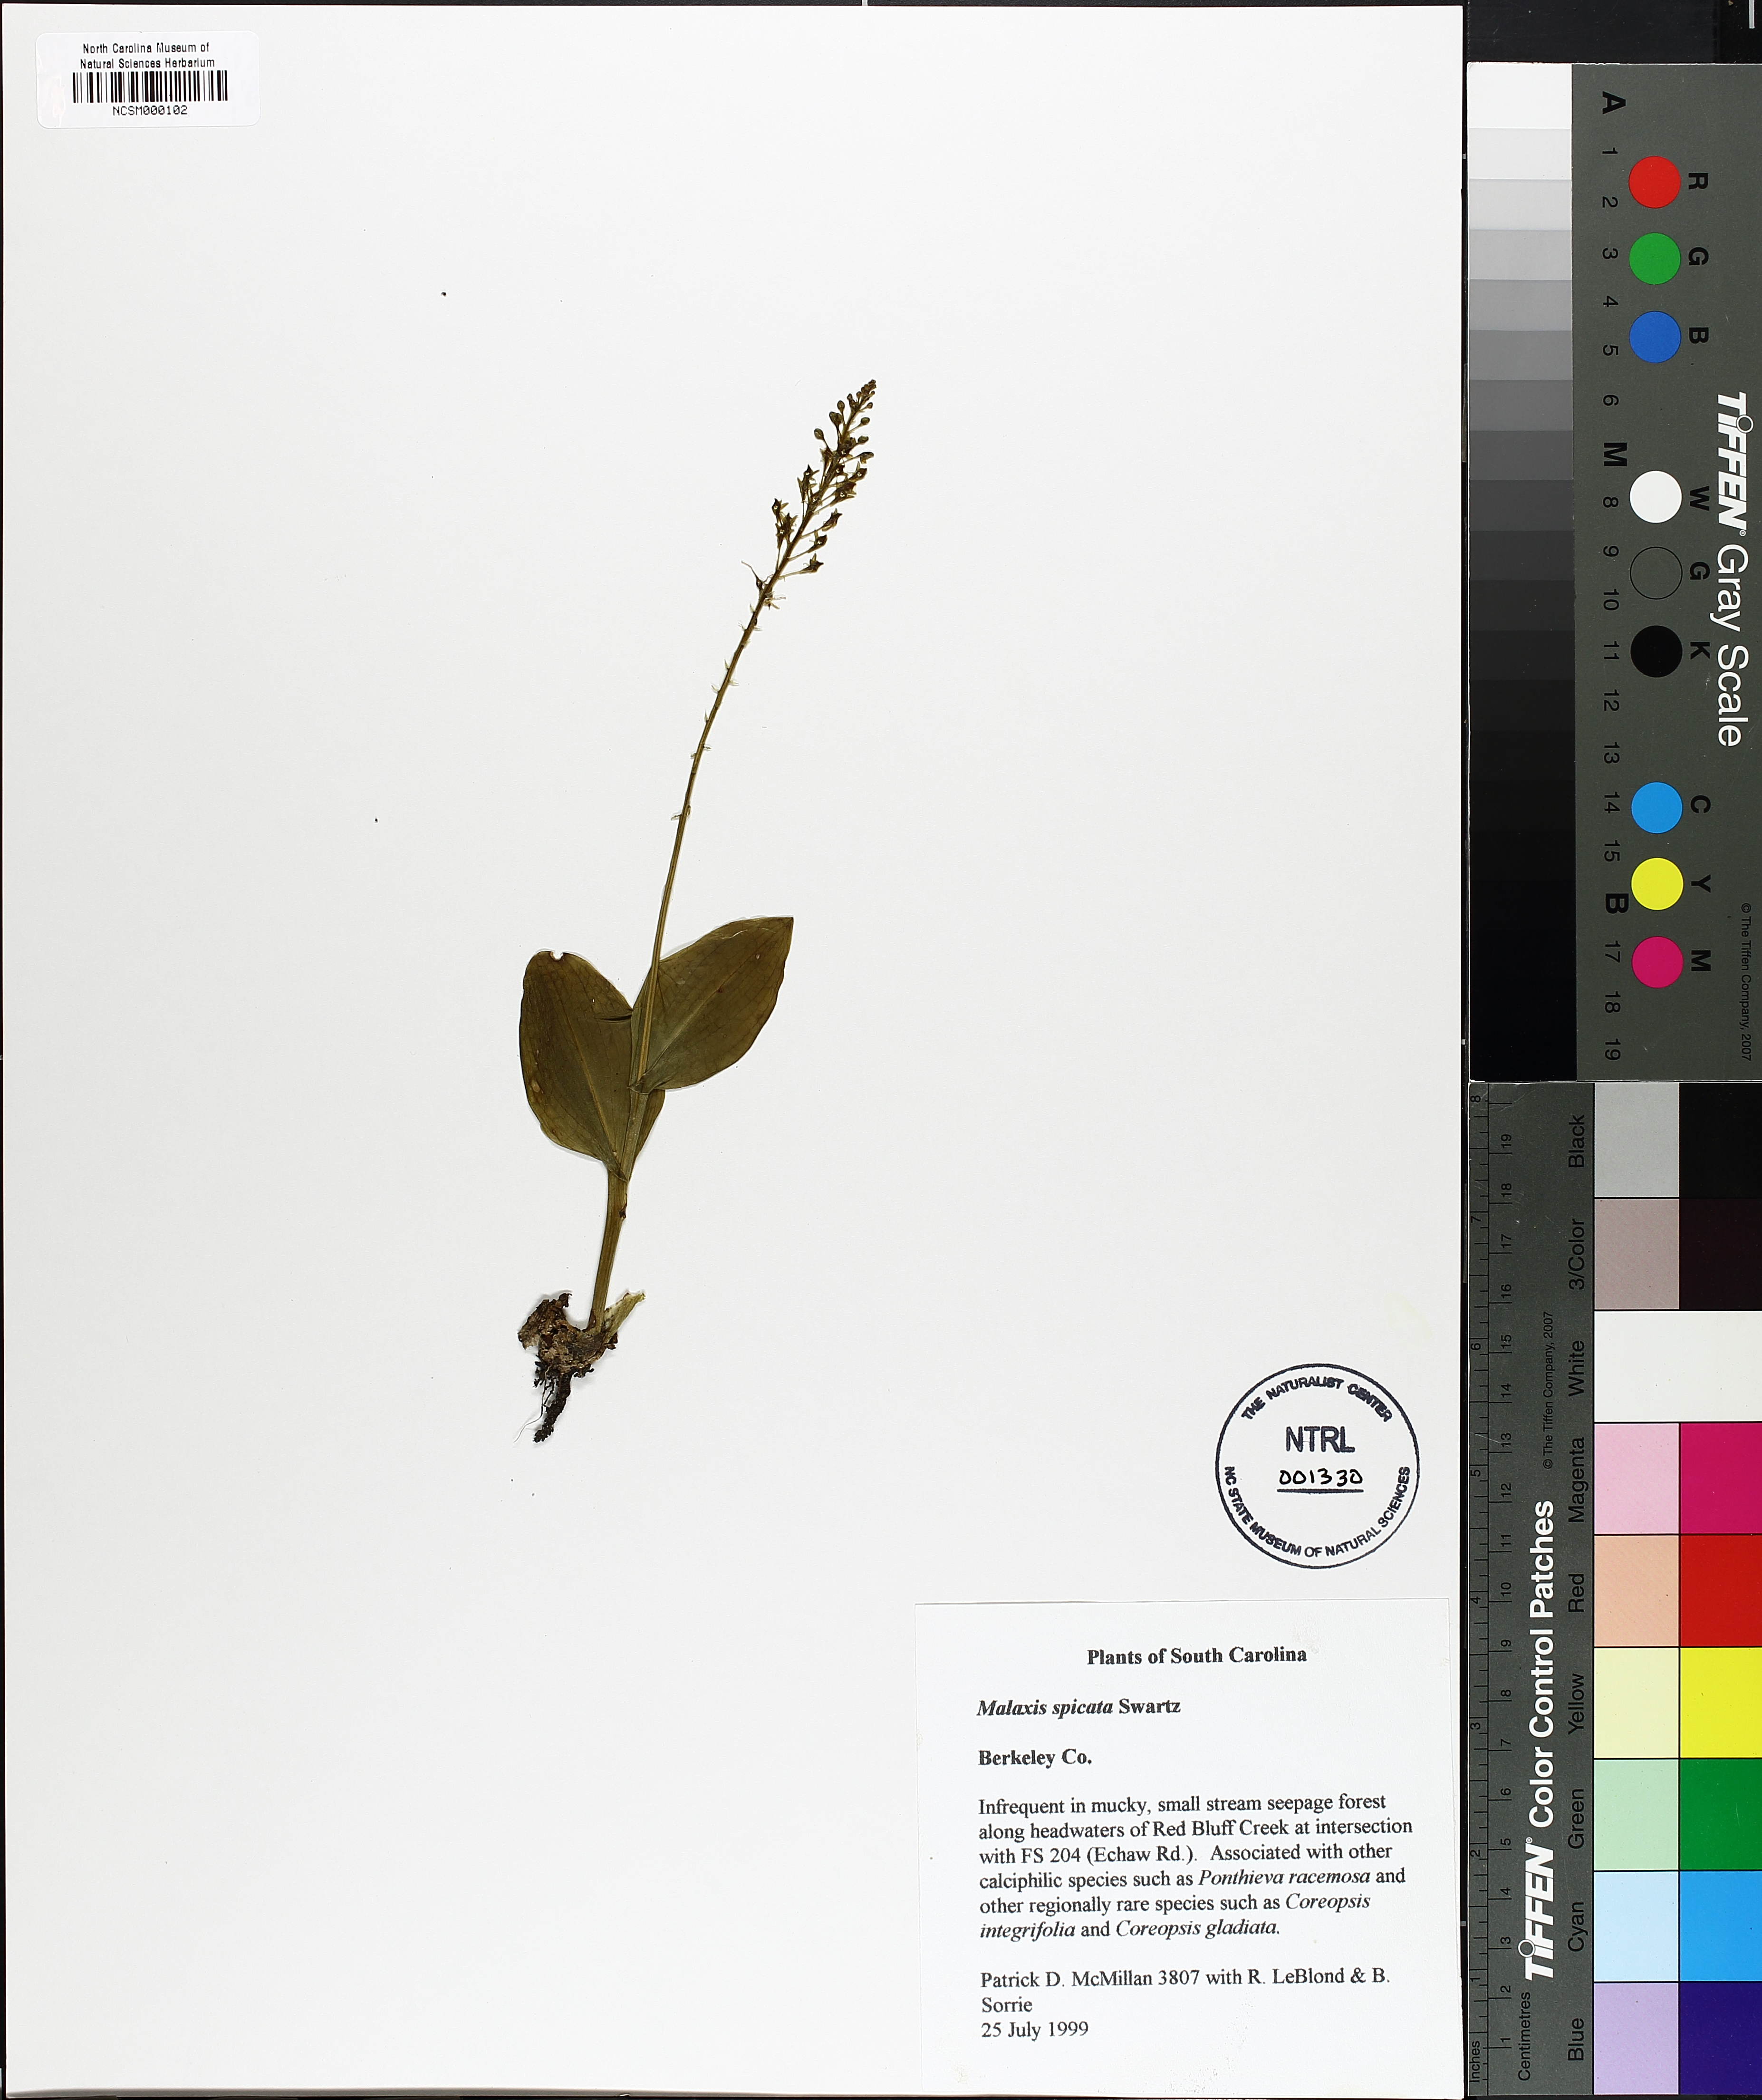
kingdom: Plantae
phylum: Tracheophyta
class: Liliopsida
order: Asparagales
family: Orchidaceae
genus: Malaxis
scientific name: Malaxis spicata
